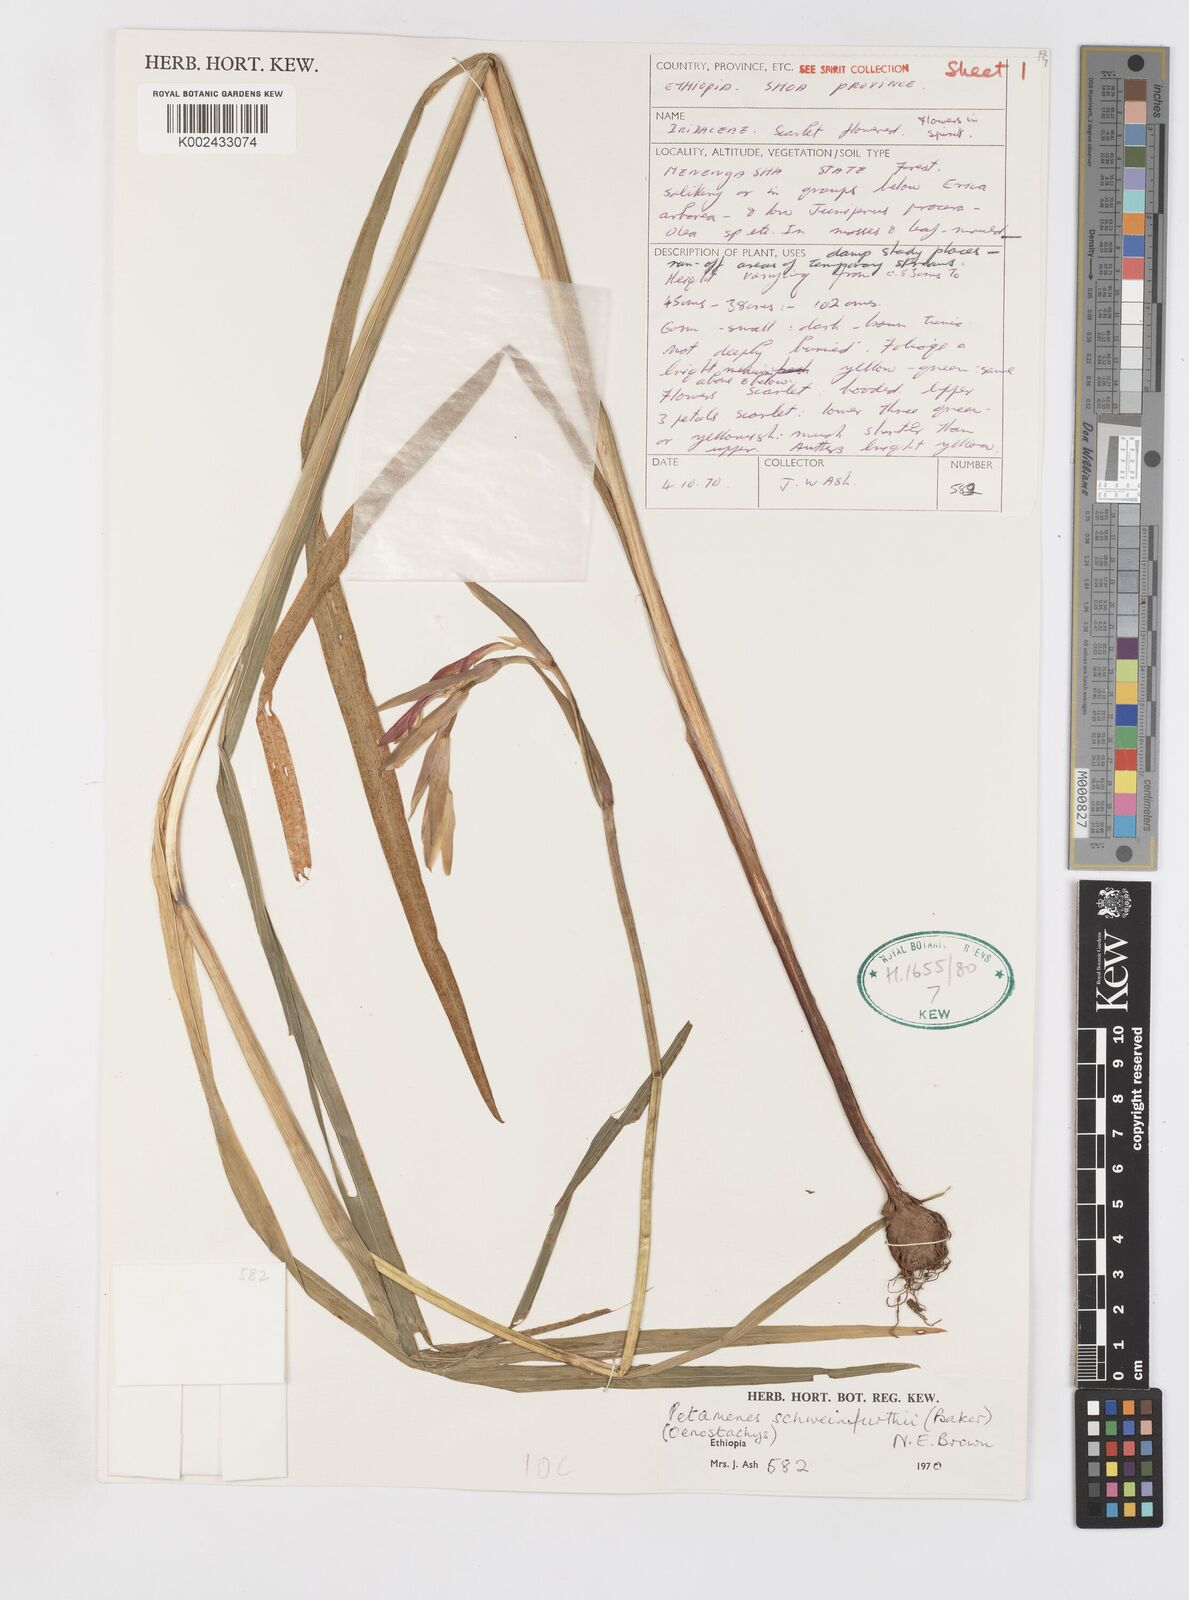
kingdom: Plantae
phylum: Tracheophyta
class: Liliopsida
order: Asparagales
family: Iridaceae
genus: Gladiolus
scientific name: Gladiolus schweinfurthii
